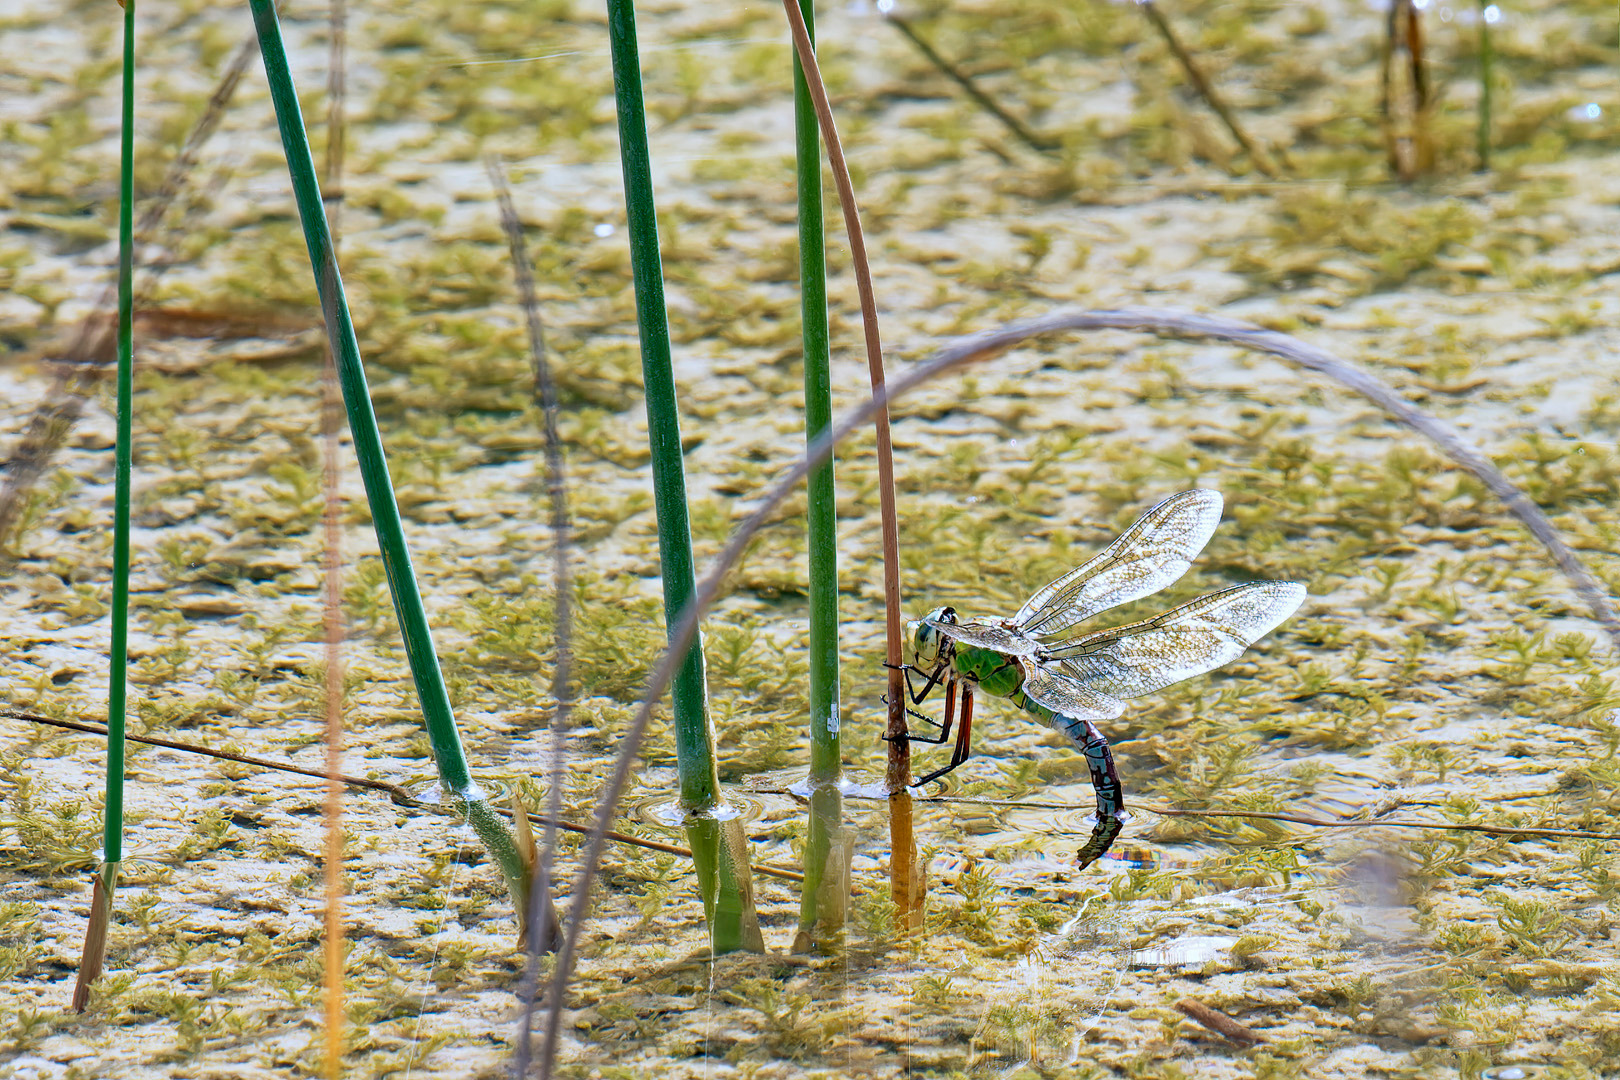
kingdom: Animalia
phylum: Arthropoda
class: Insecta
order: Odonata
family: Aeshnidae
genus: Anax
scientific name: Anax imperator
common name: Stor kejserguldsmed
